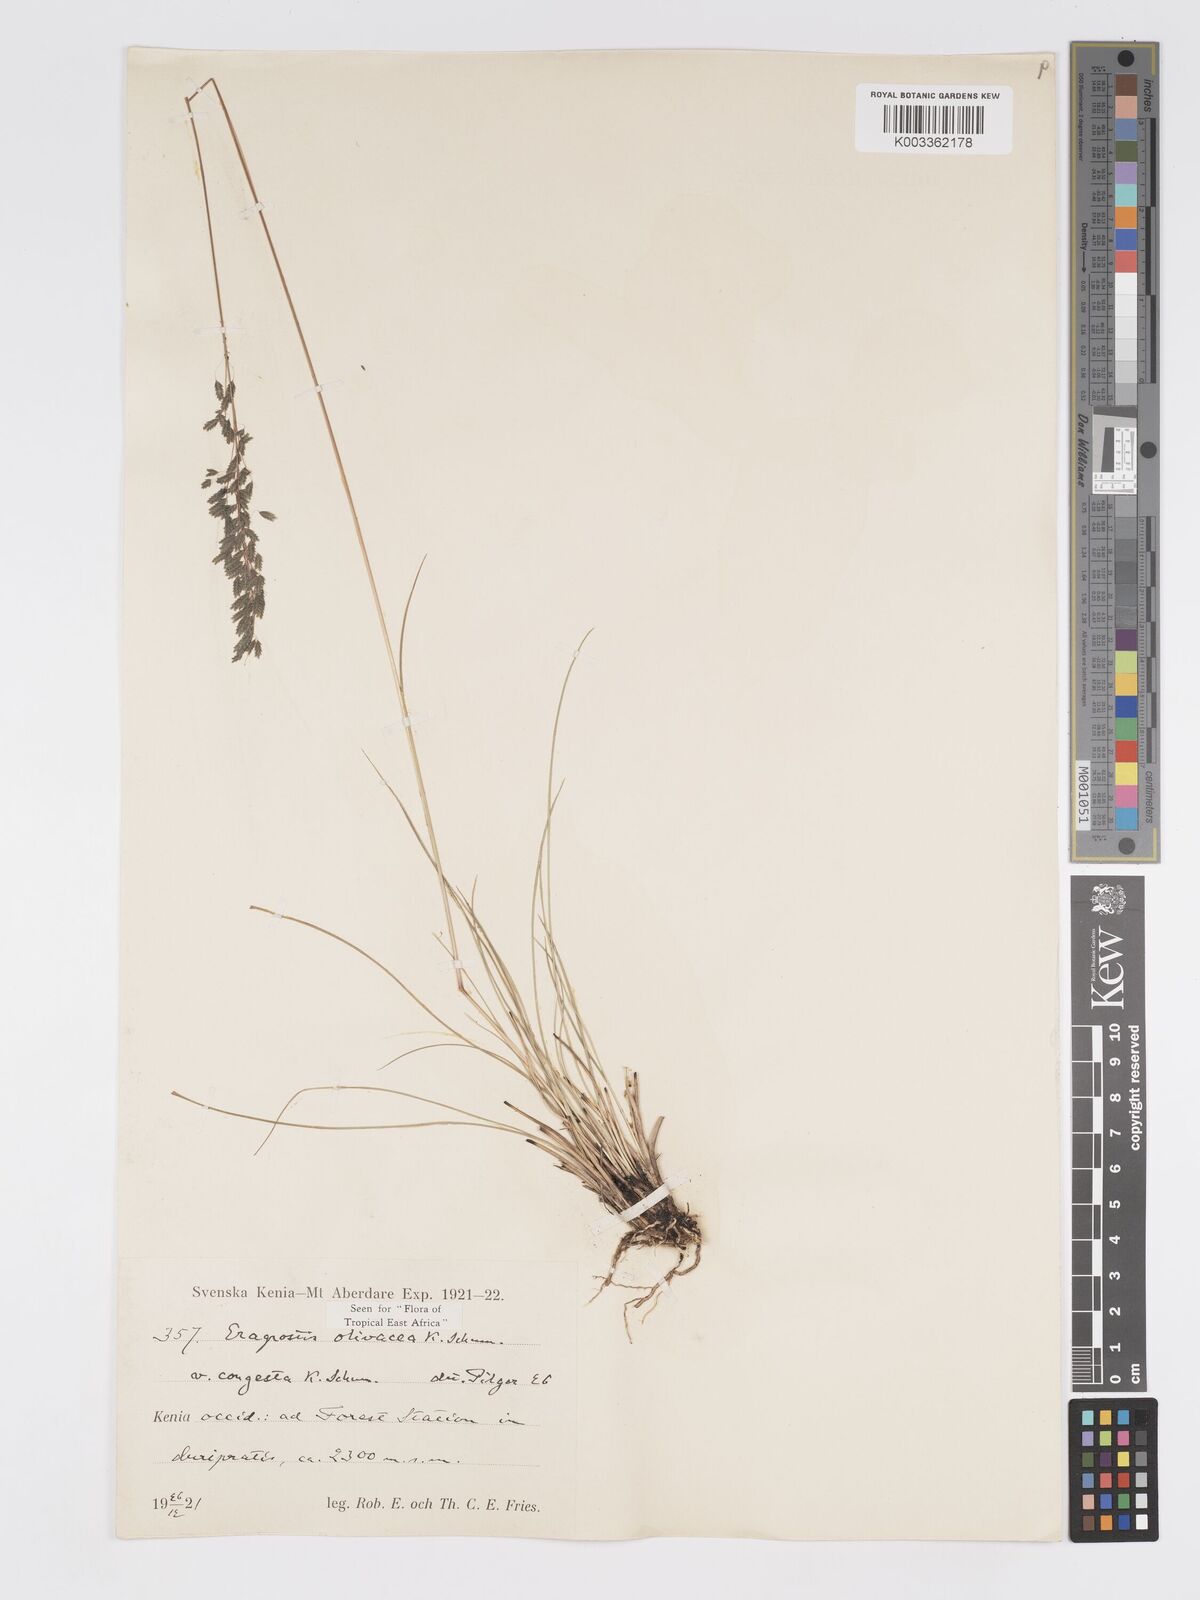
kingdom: Plantae
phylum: Tracheophyta
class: Liliopsida
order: Poales
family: Poaceae
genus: Eragrostis
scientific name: Eragrostis olivacea
